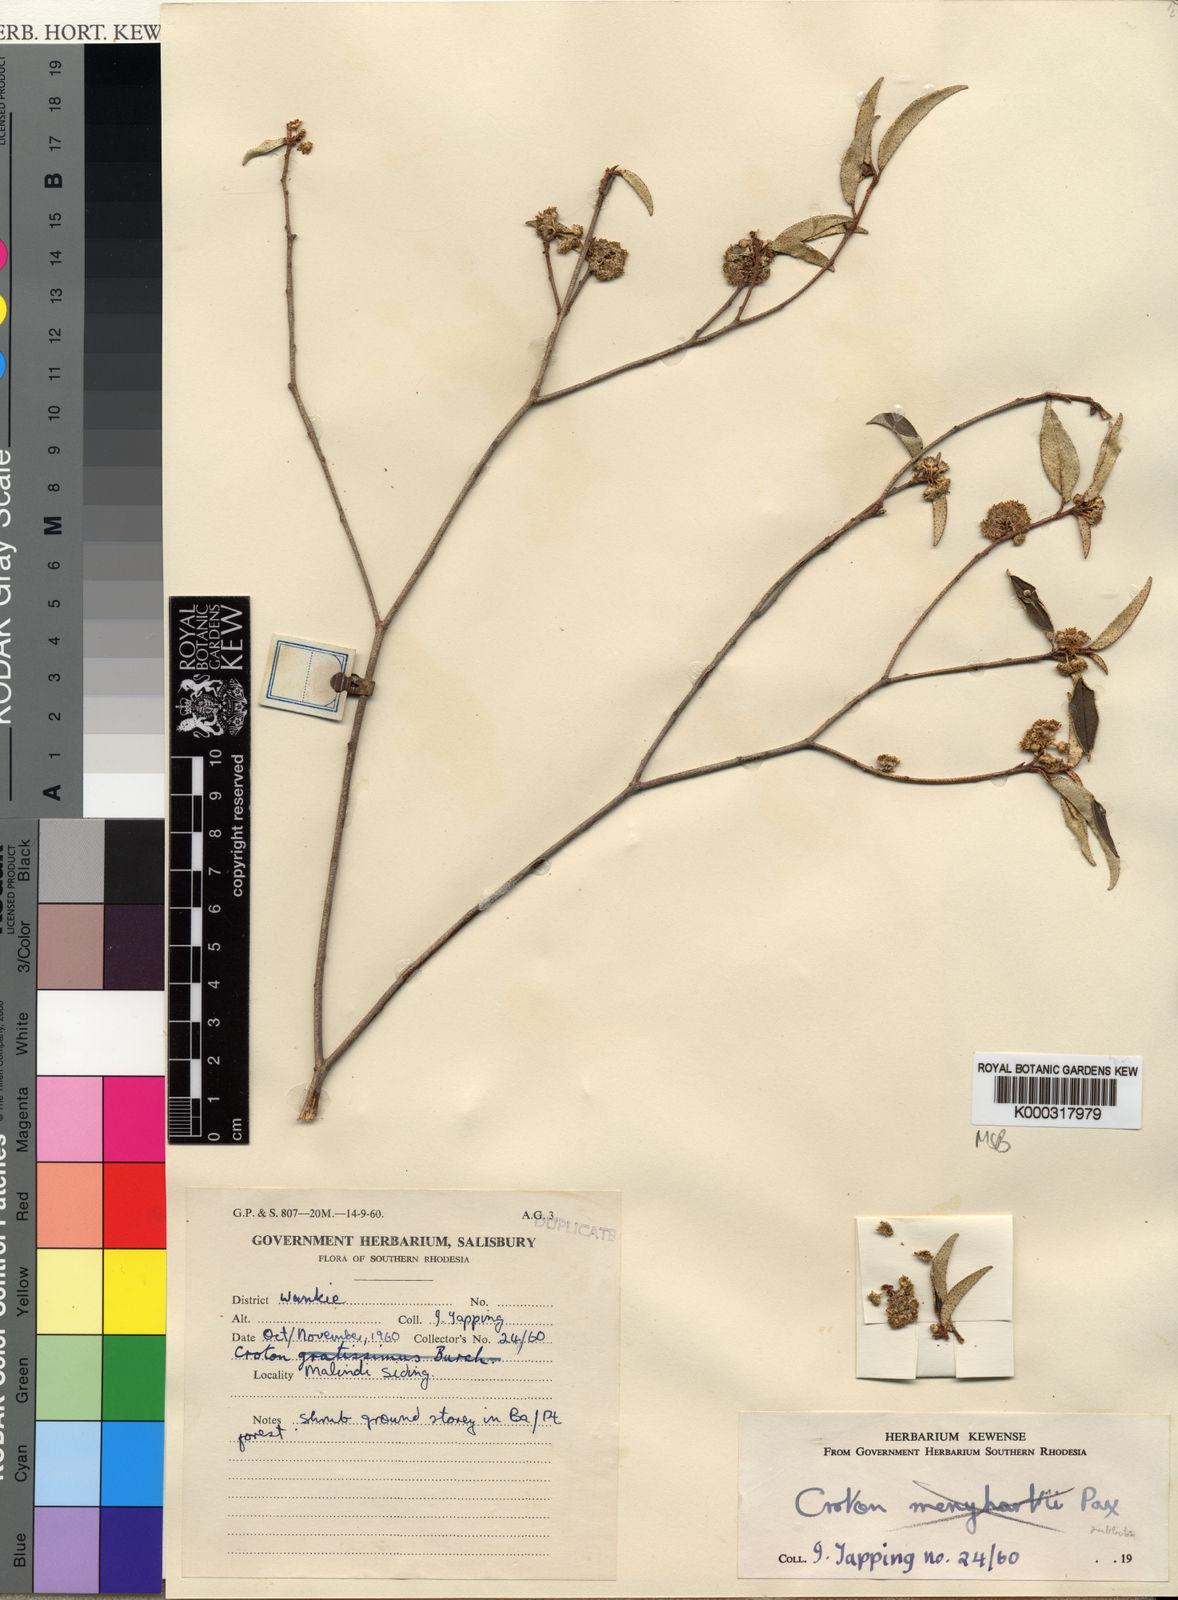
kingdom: Plantae
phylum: Tracheophyta
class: Magnoliopsida
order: Malpighiales
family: Euphorbiaceae
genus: Croton
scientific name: Croton pseudopulchellus
